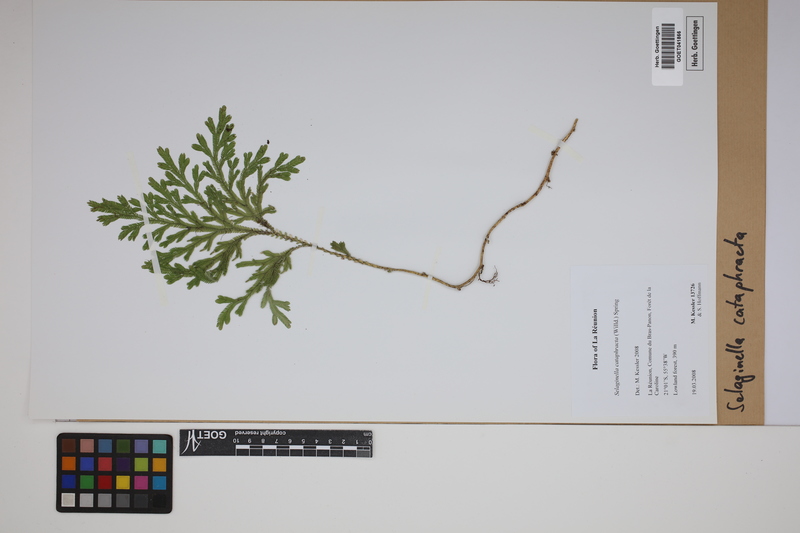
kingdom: Plantae
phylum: Tracheophyta
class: Lycopodiopsida
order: Selaginellales
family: Selaginellaceae
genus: Selaginella
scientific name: Selaginella cataphracta
